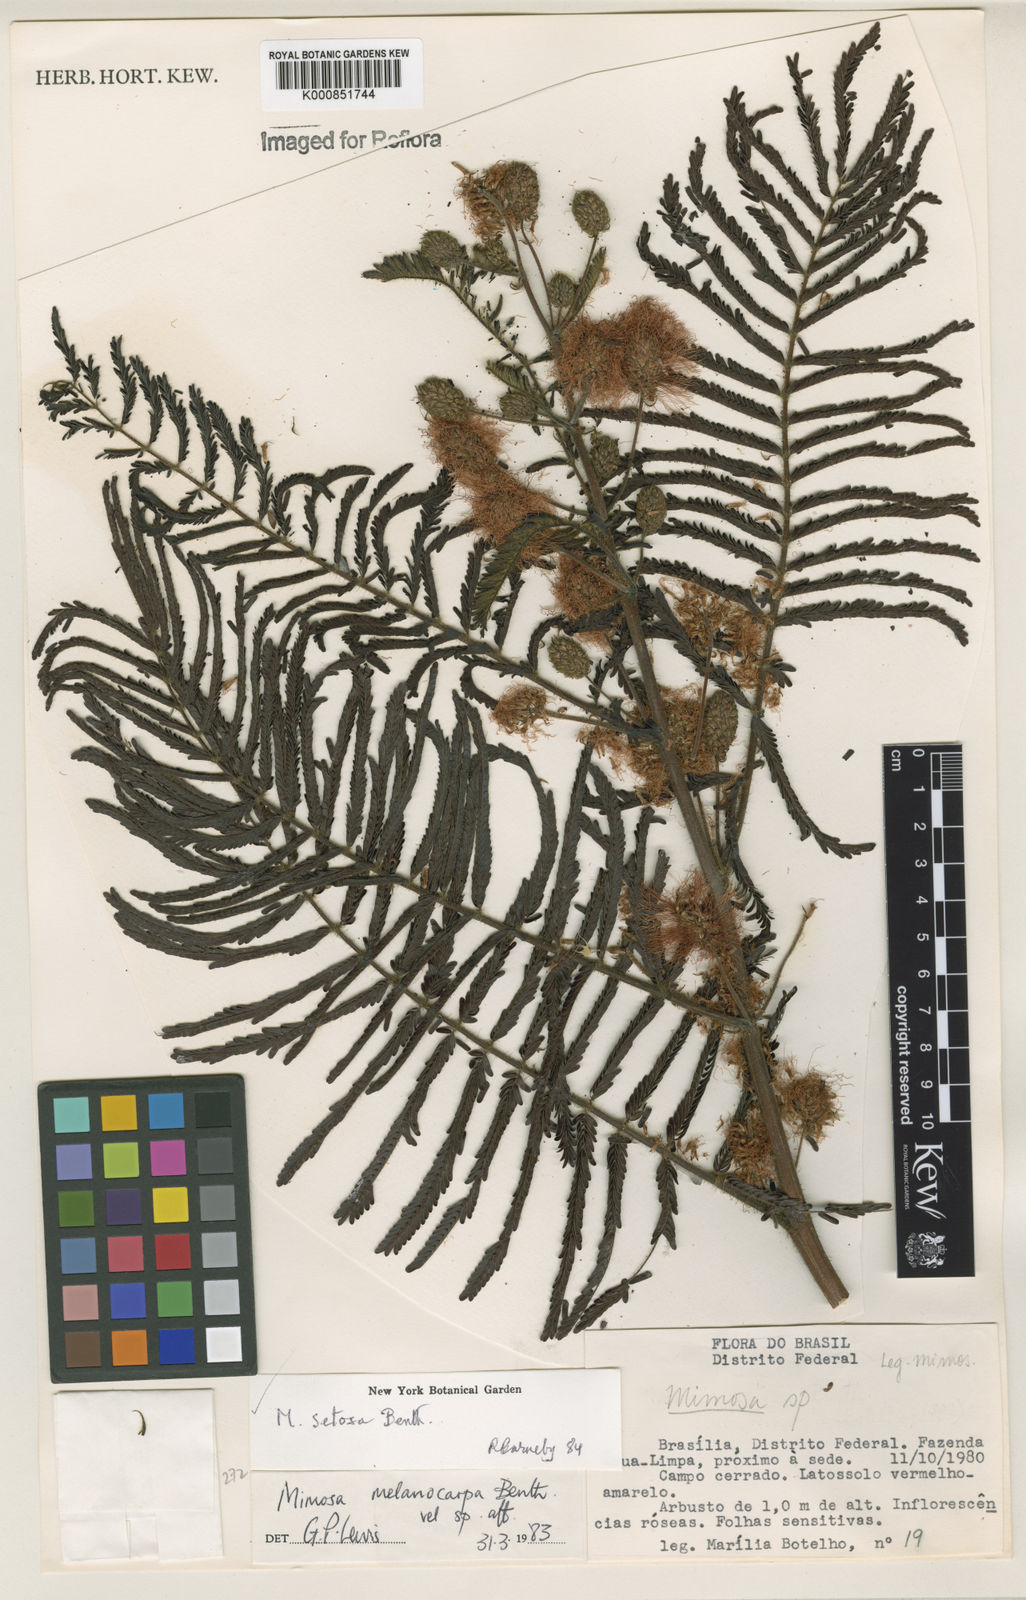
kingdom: Plantae
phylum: Tracheophyta
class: Magnoliopsida
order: Fabales
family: Fabaceae
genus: Mimosa
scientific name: Mimosa setosa
